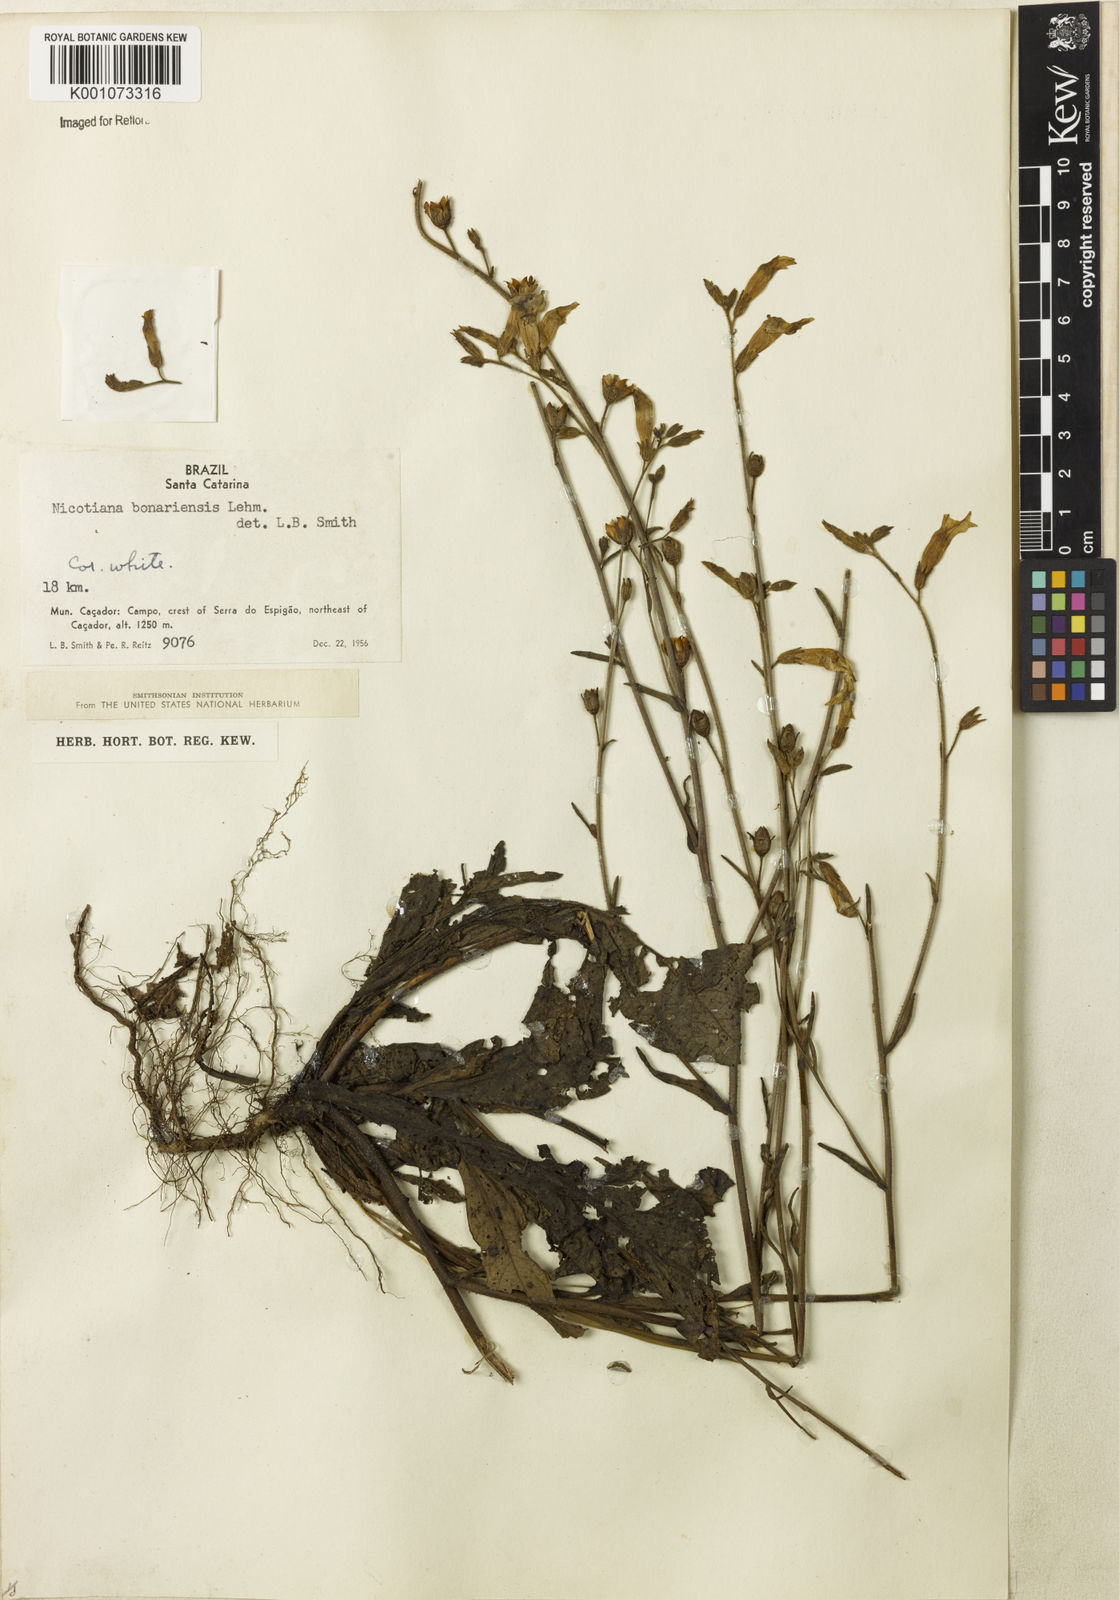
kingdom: Plantae
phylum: Tracheophyta
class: Magnoliopsida
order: Solanales
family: Solanaceae
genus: Nicotiana
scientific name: Nicotiana bonariensis
